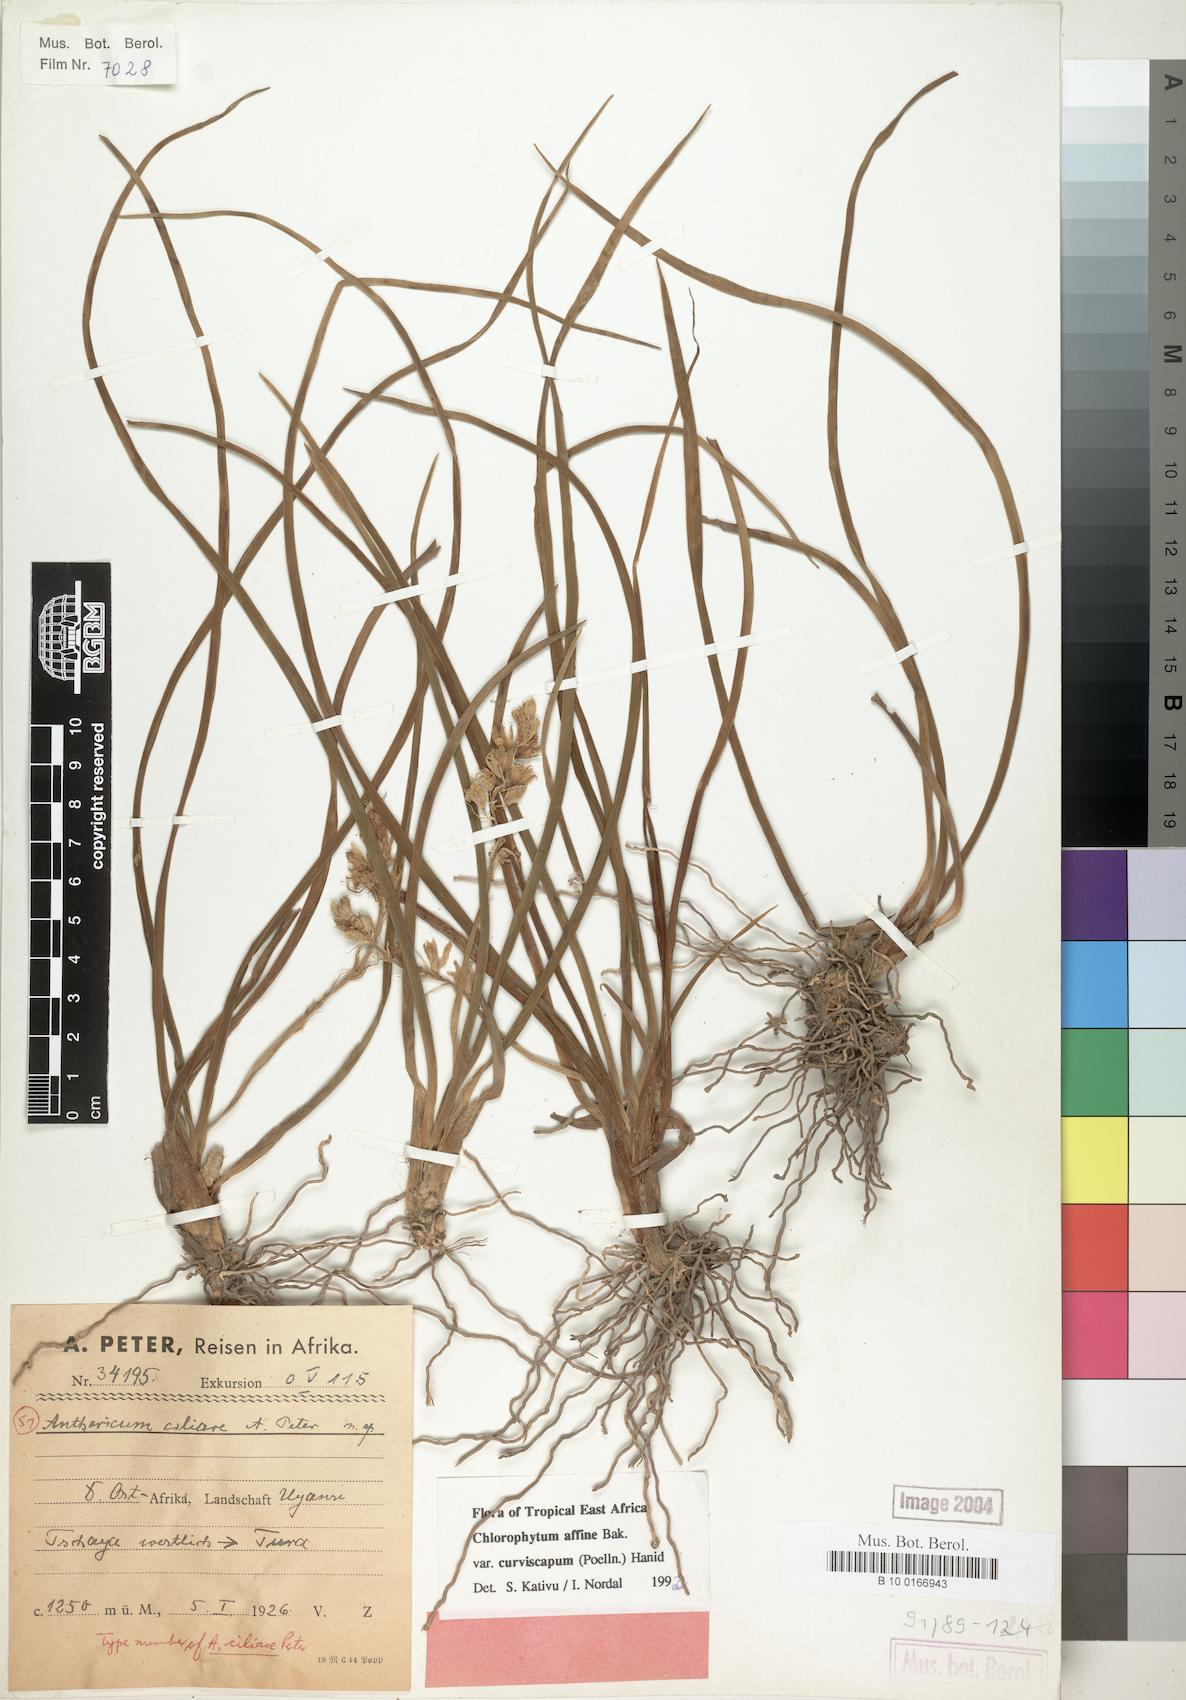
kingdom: Plantae
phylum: Tracheophyta
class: Liliopsida
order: Asparagales
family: Asparagaceae
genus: Chlorophytum
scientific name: Chlorophytum tordense
